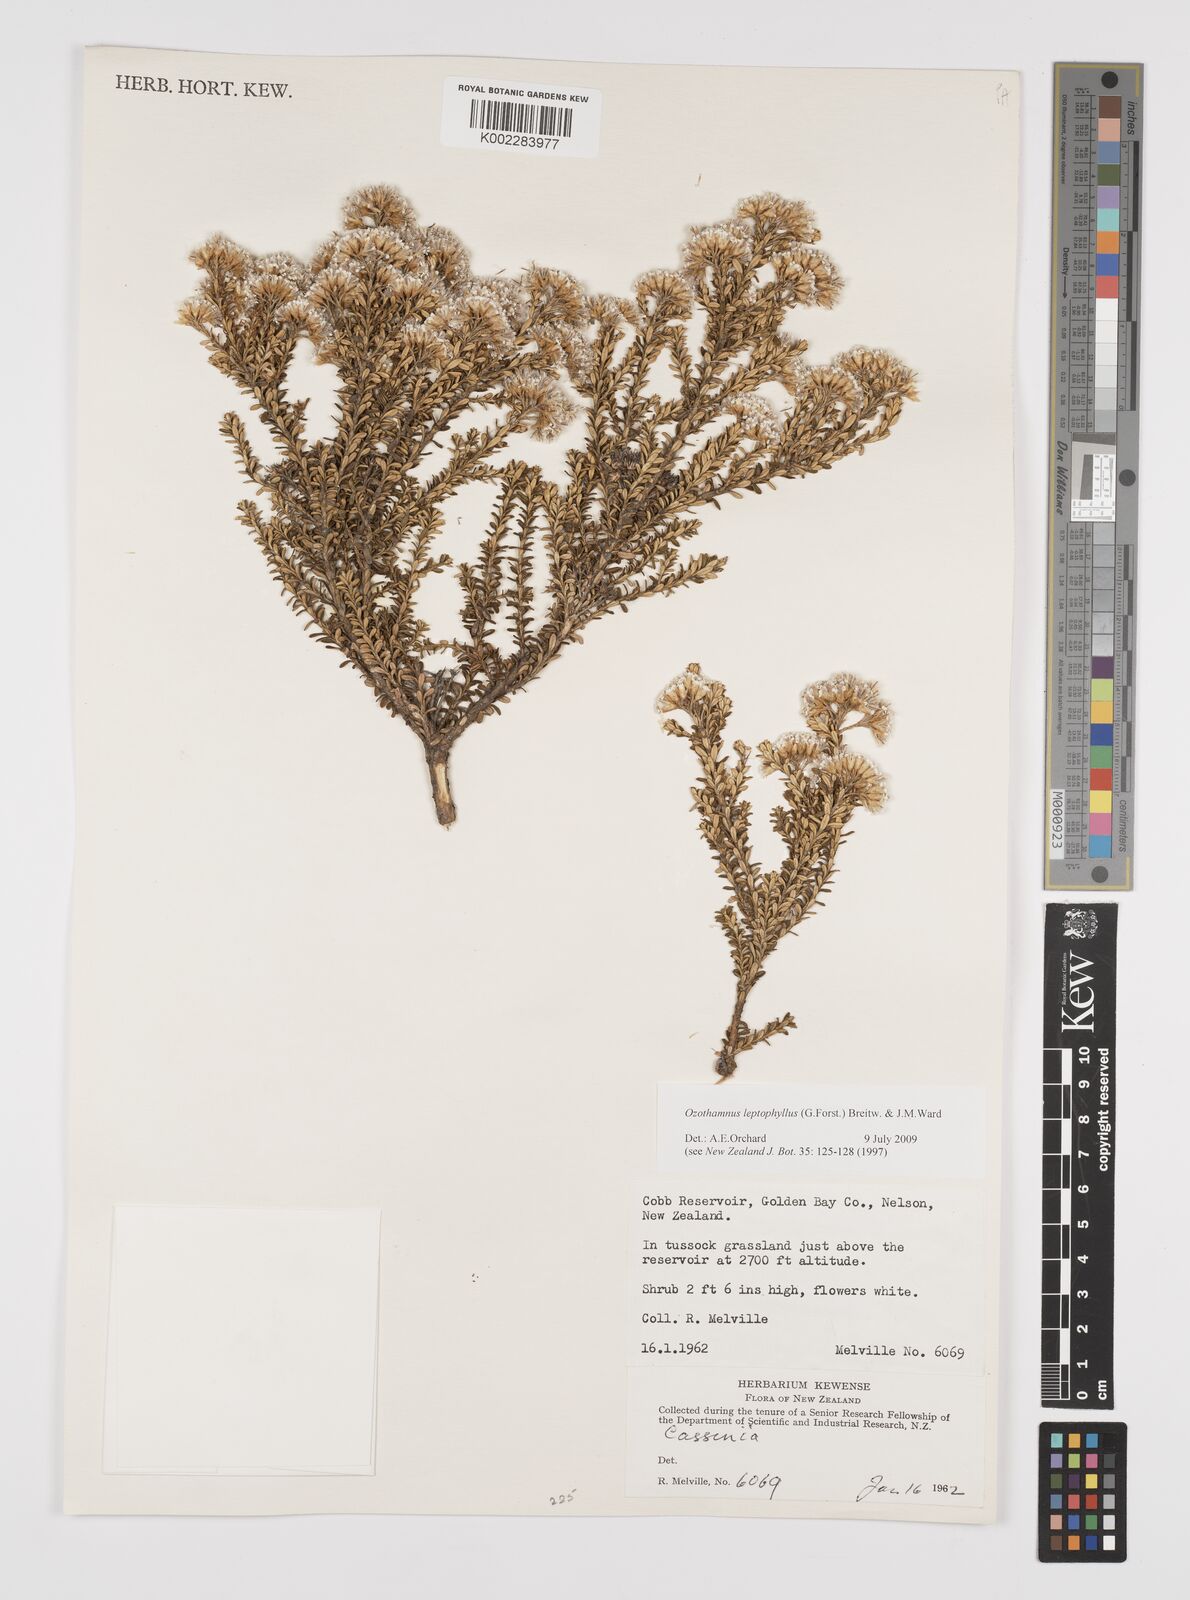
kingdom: Plantae
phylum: Tracheophyta
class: Magnoliopsida
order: Asterales
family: Asteraceae
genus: Ozothamnus
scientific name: Ozothamnus
